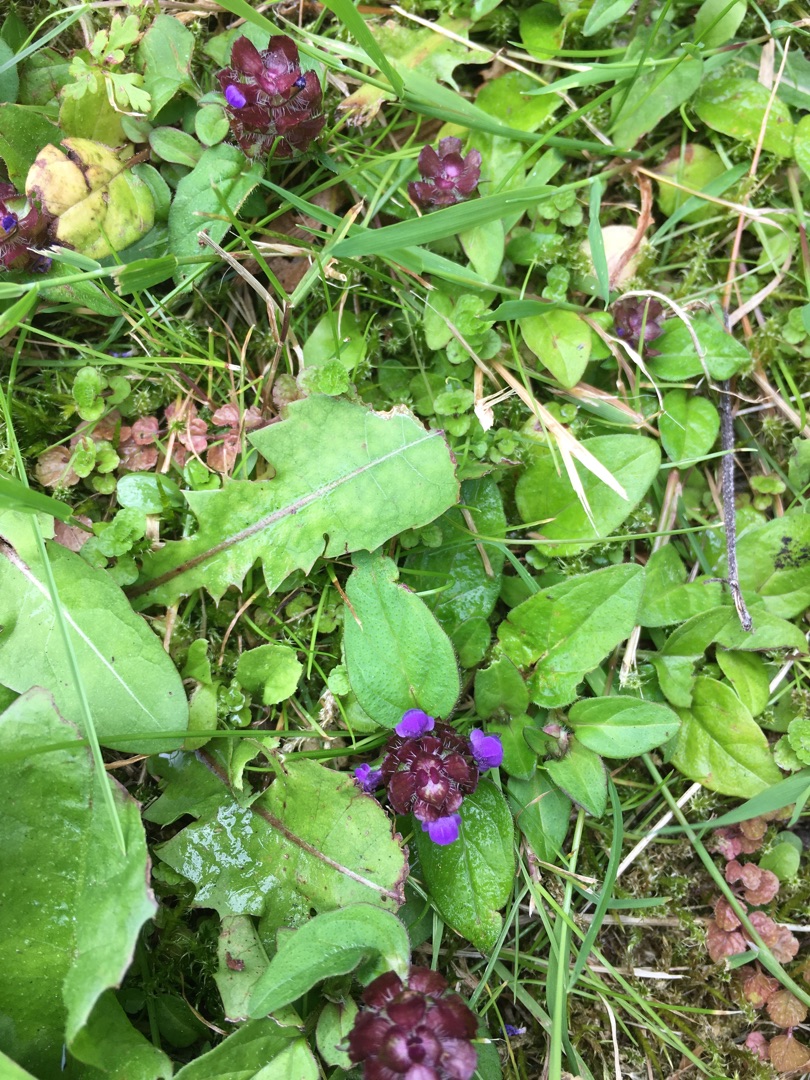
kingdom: Plantae
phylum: Tracheophyta
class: Magnoliopsida
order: Lamiales
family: Lamiaceae
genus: Prunella
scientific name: Prunella vulgaris
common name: Almindelig brunelle
